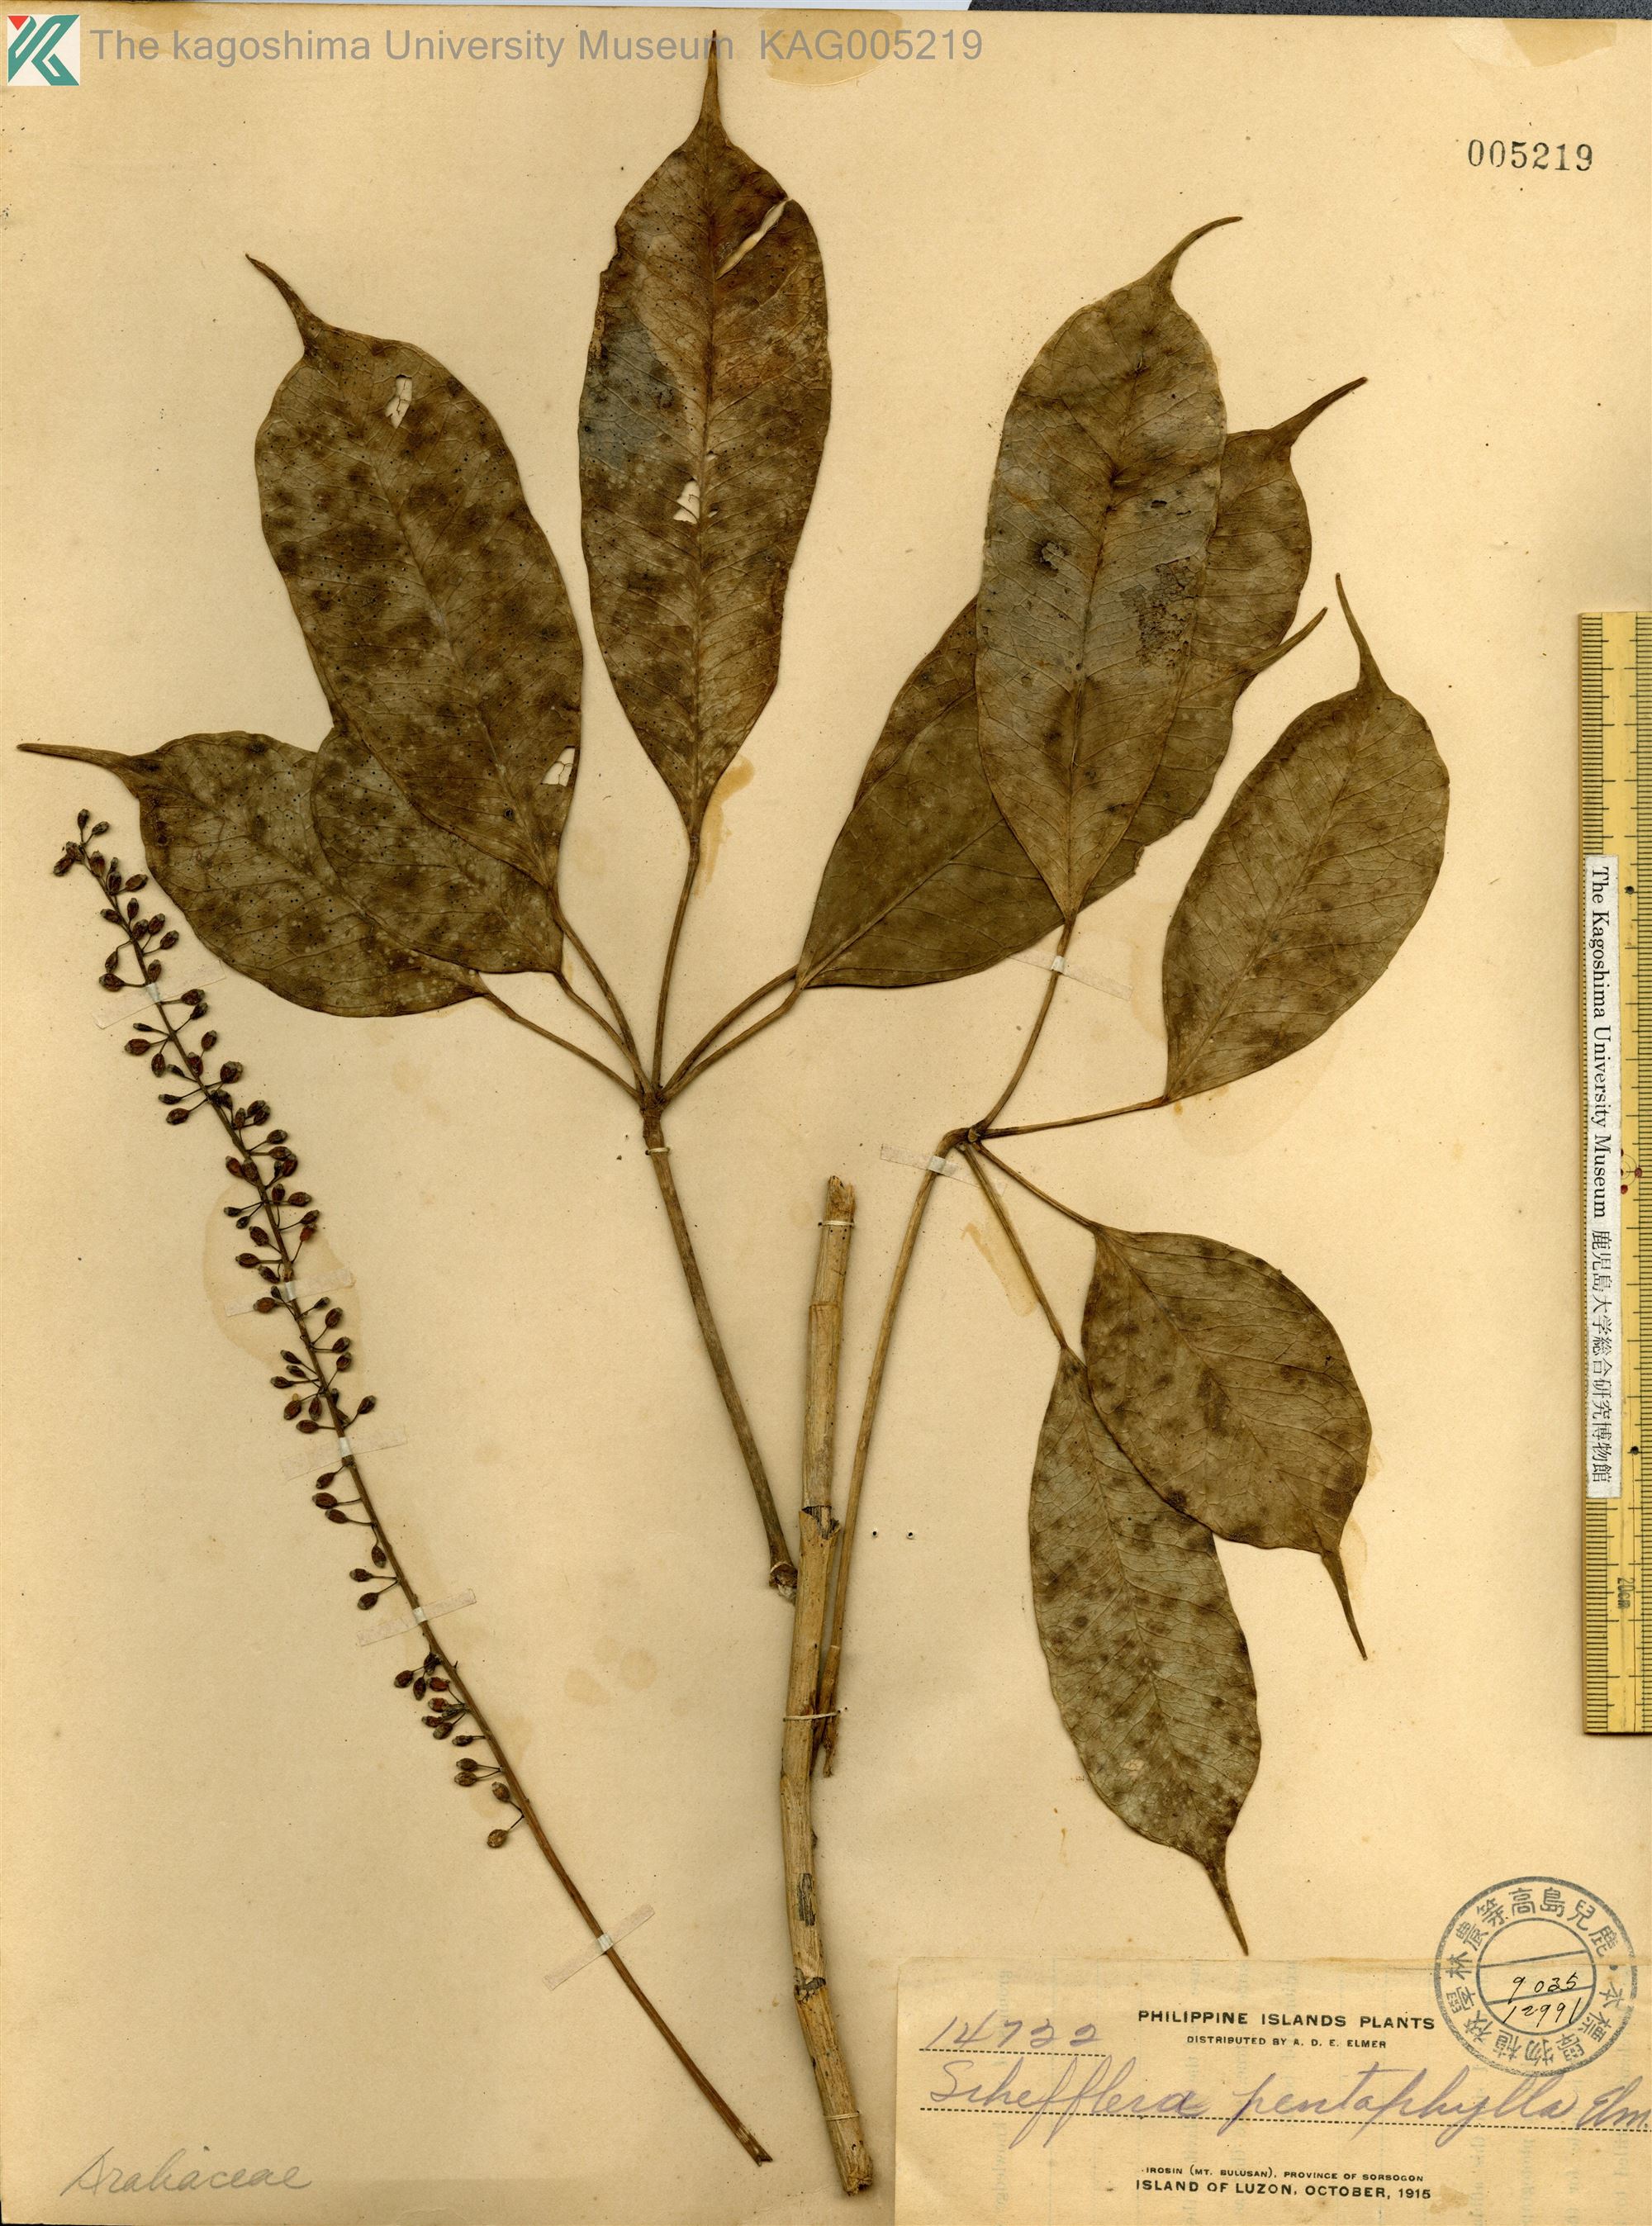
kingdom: Plantae
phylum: Tracheophyta
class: Magnoliopsida
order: Apiales
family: Araliaceae
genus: Heptapleurum
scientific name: Heptapleurum caudatum
